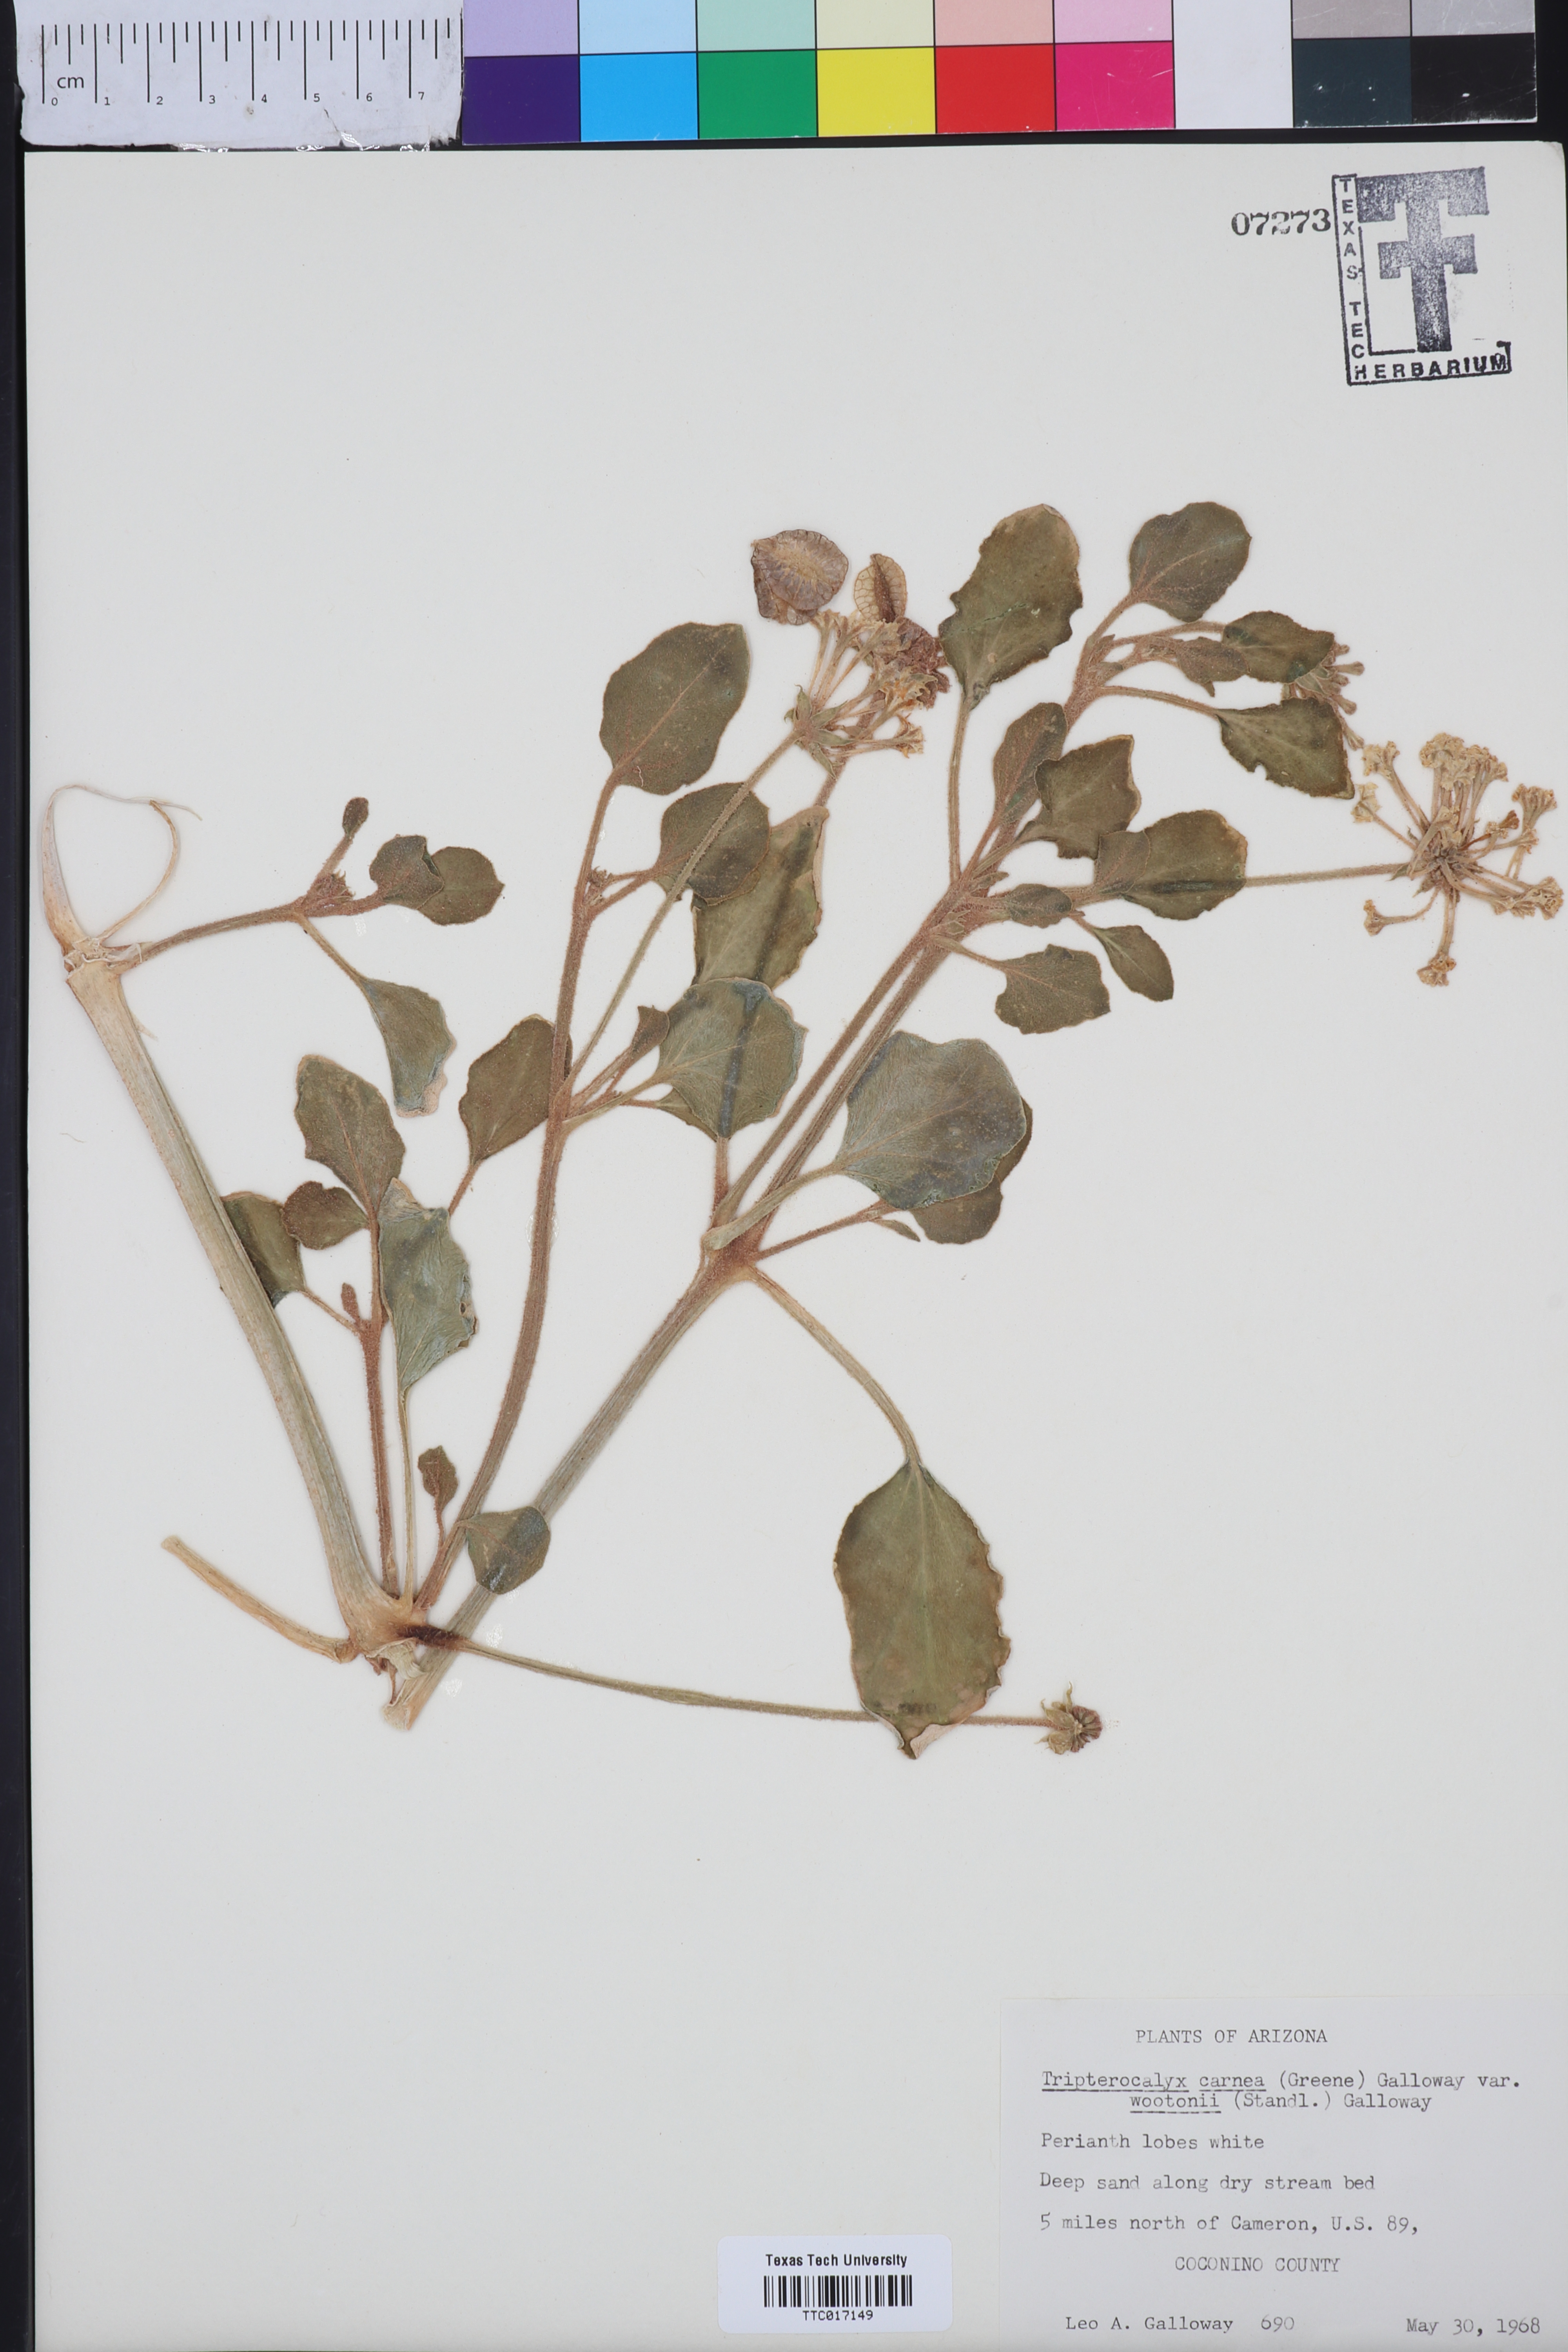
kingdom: Plantae
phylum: Tracheophyta
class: Magnoliopsida
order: Caryophyllales
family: Nyctaginaceae
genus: Tripterocalyx
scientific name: Tripterocalyx wootonii
